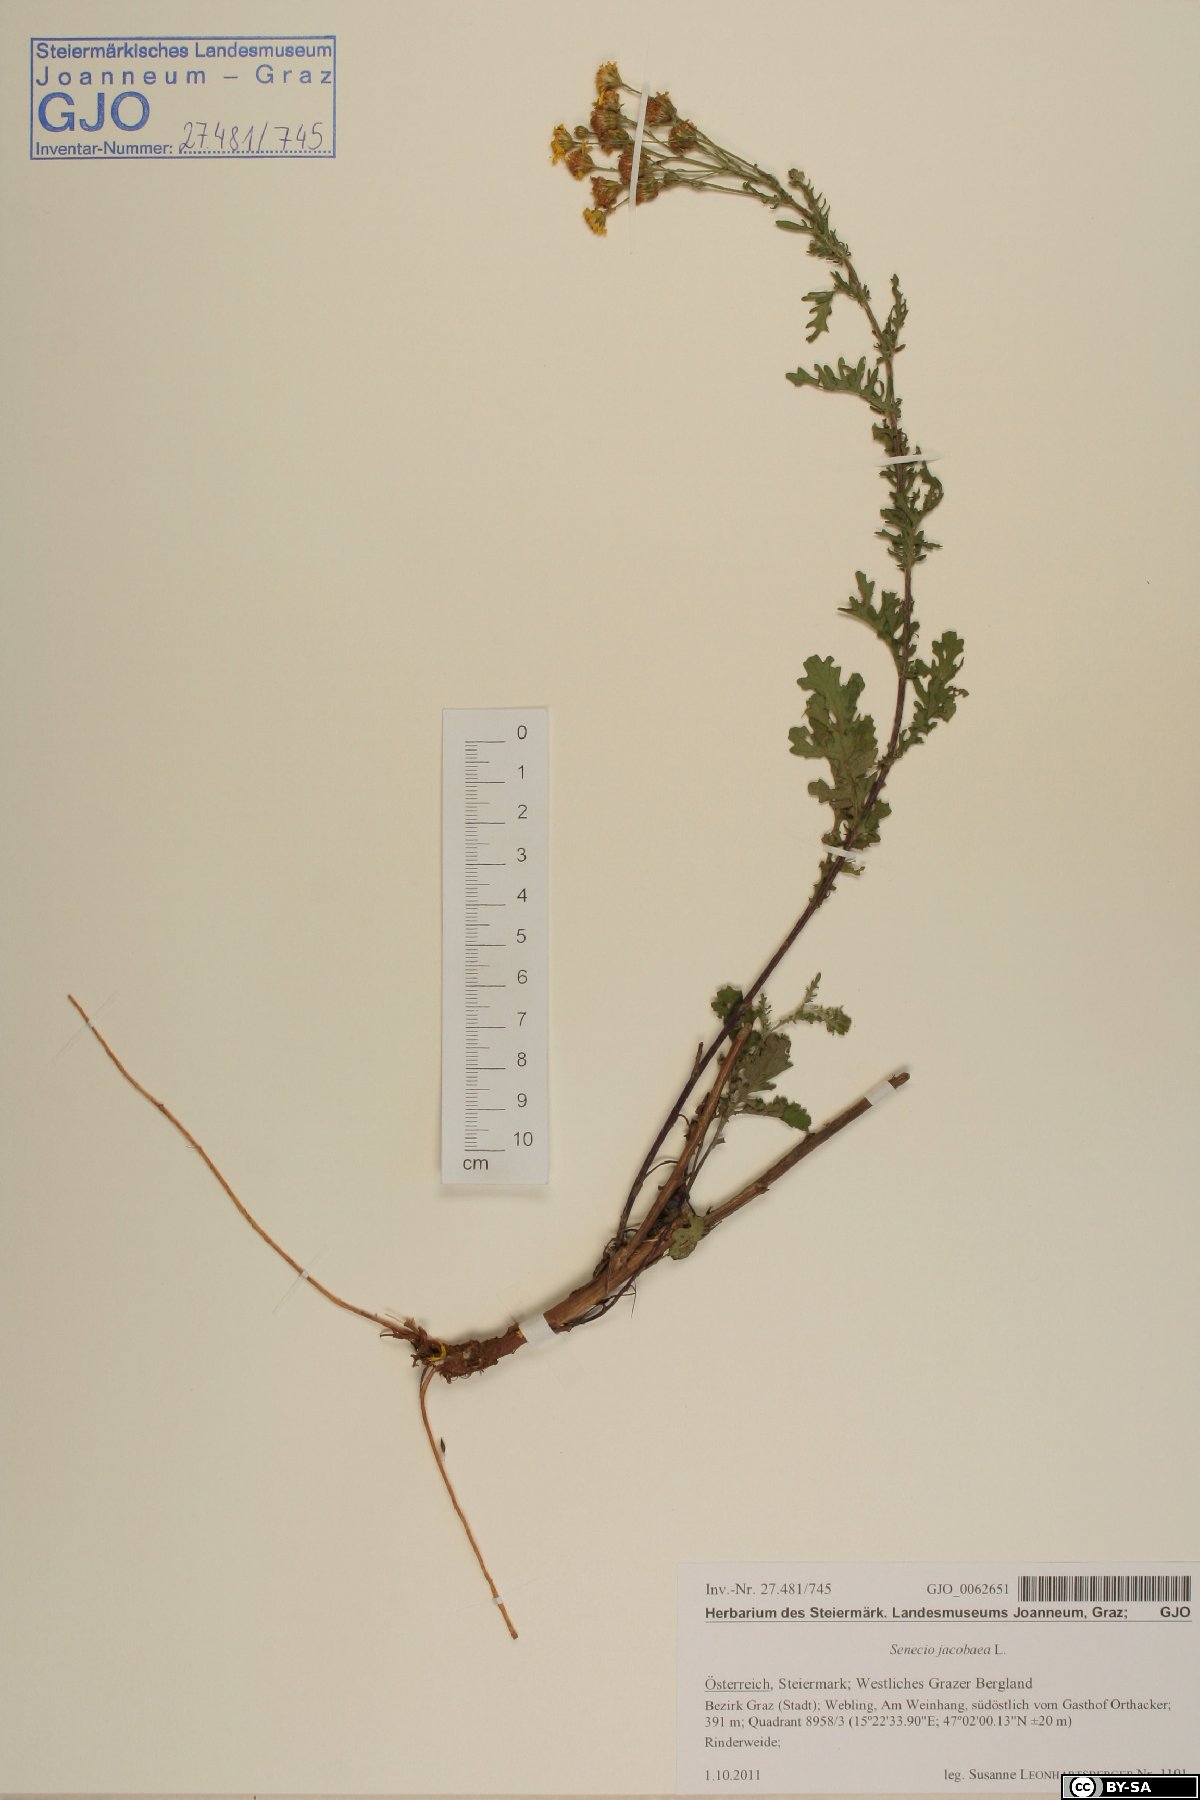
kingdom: Plantae
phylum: Tracheophyta
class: Magnoliopsida
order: Asterales
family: Asteraceae
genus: Jacobaea
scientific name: Jacobaea vulgaris
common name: Stinking willie
